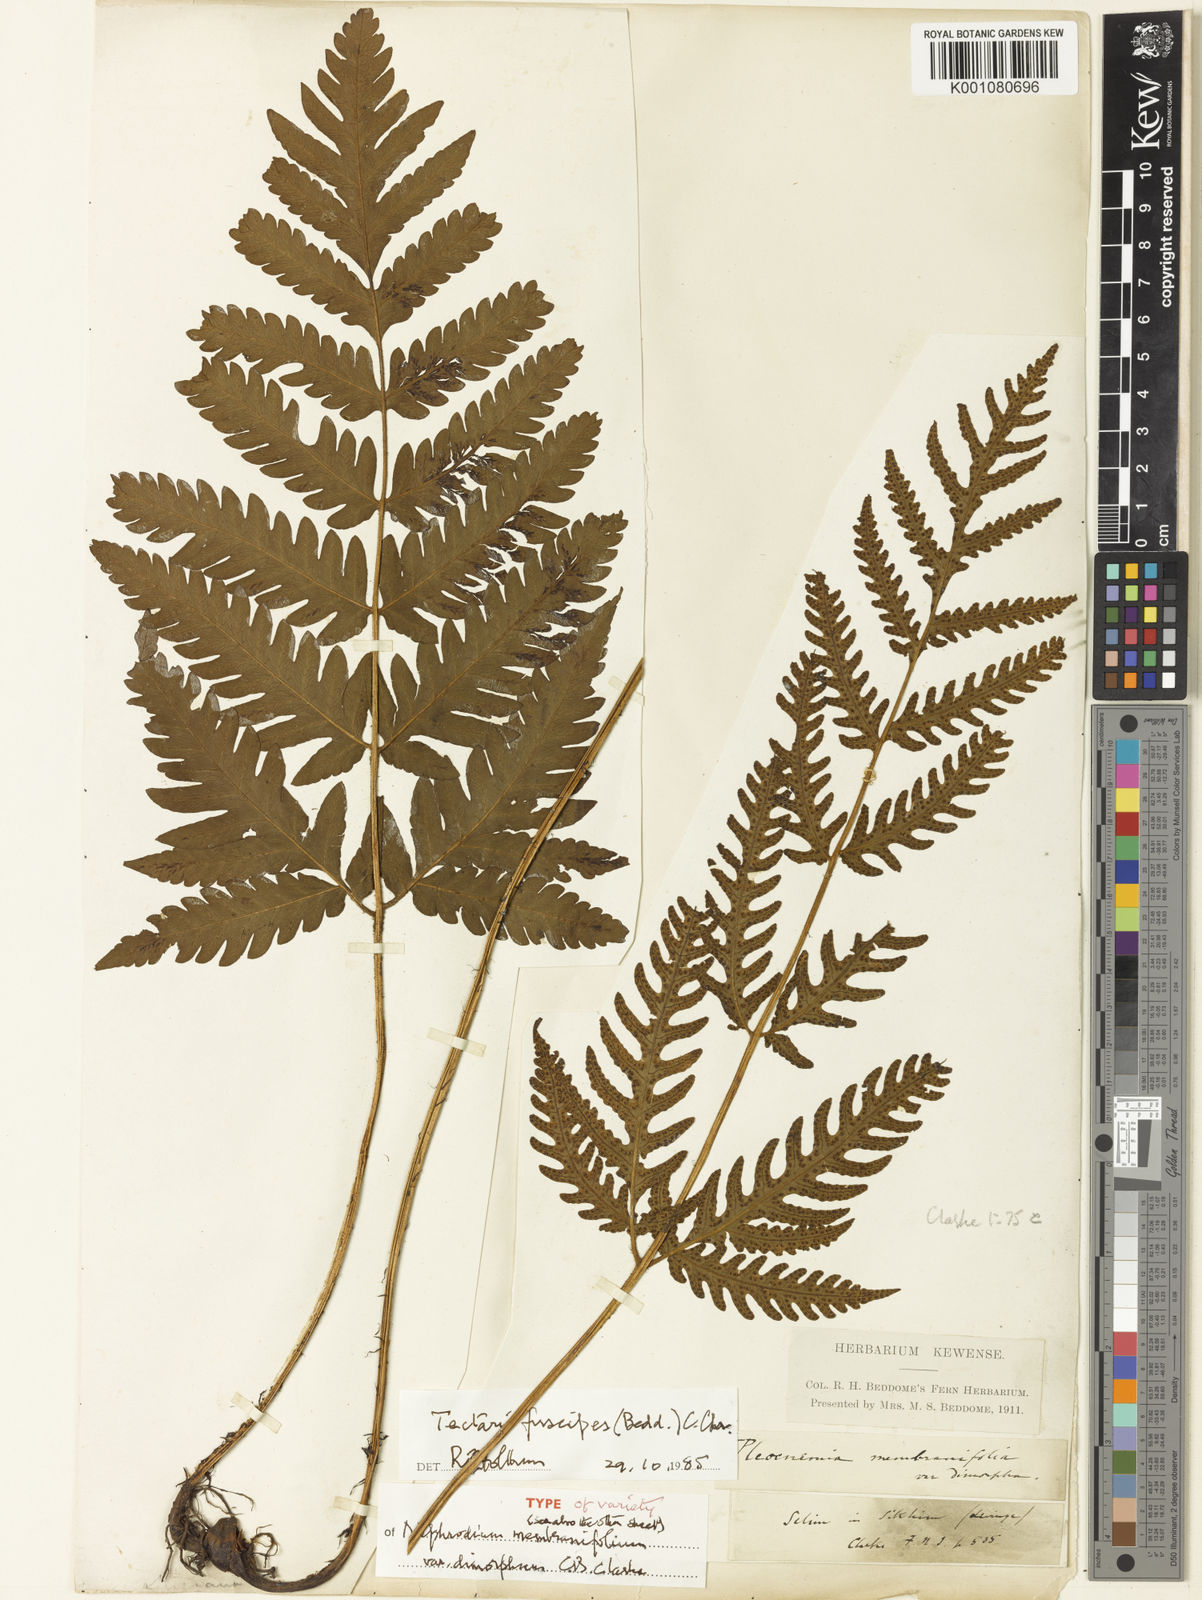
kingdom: Plantae
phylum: Tracheophyta
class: Polypodiopsida
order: Polypodiales
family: Tectariaceae
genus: Tectaria
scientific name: Tectaria fuscipes
